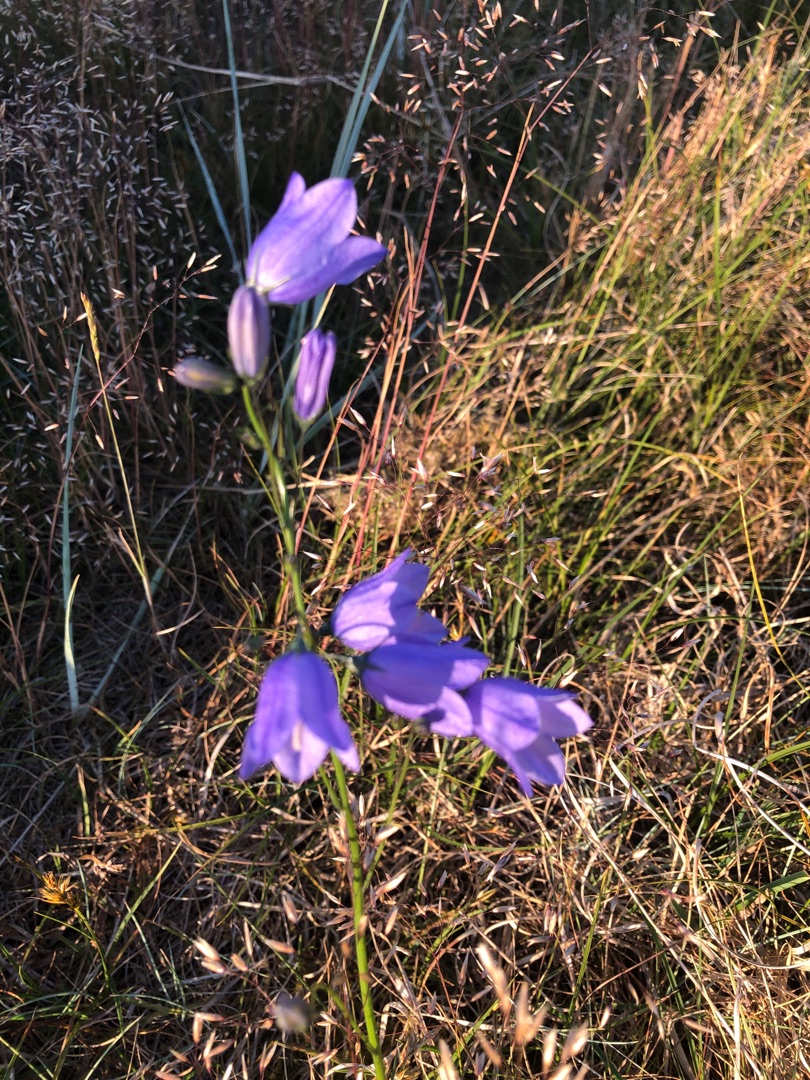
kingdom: Plantae
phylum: Tracheophyta
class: Magnoliopsida
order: Asterales
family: Campanulaceae
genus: Campanula
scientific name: Campanula rotundifolia
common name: Liden klokke
